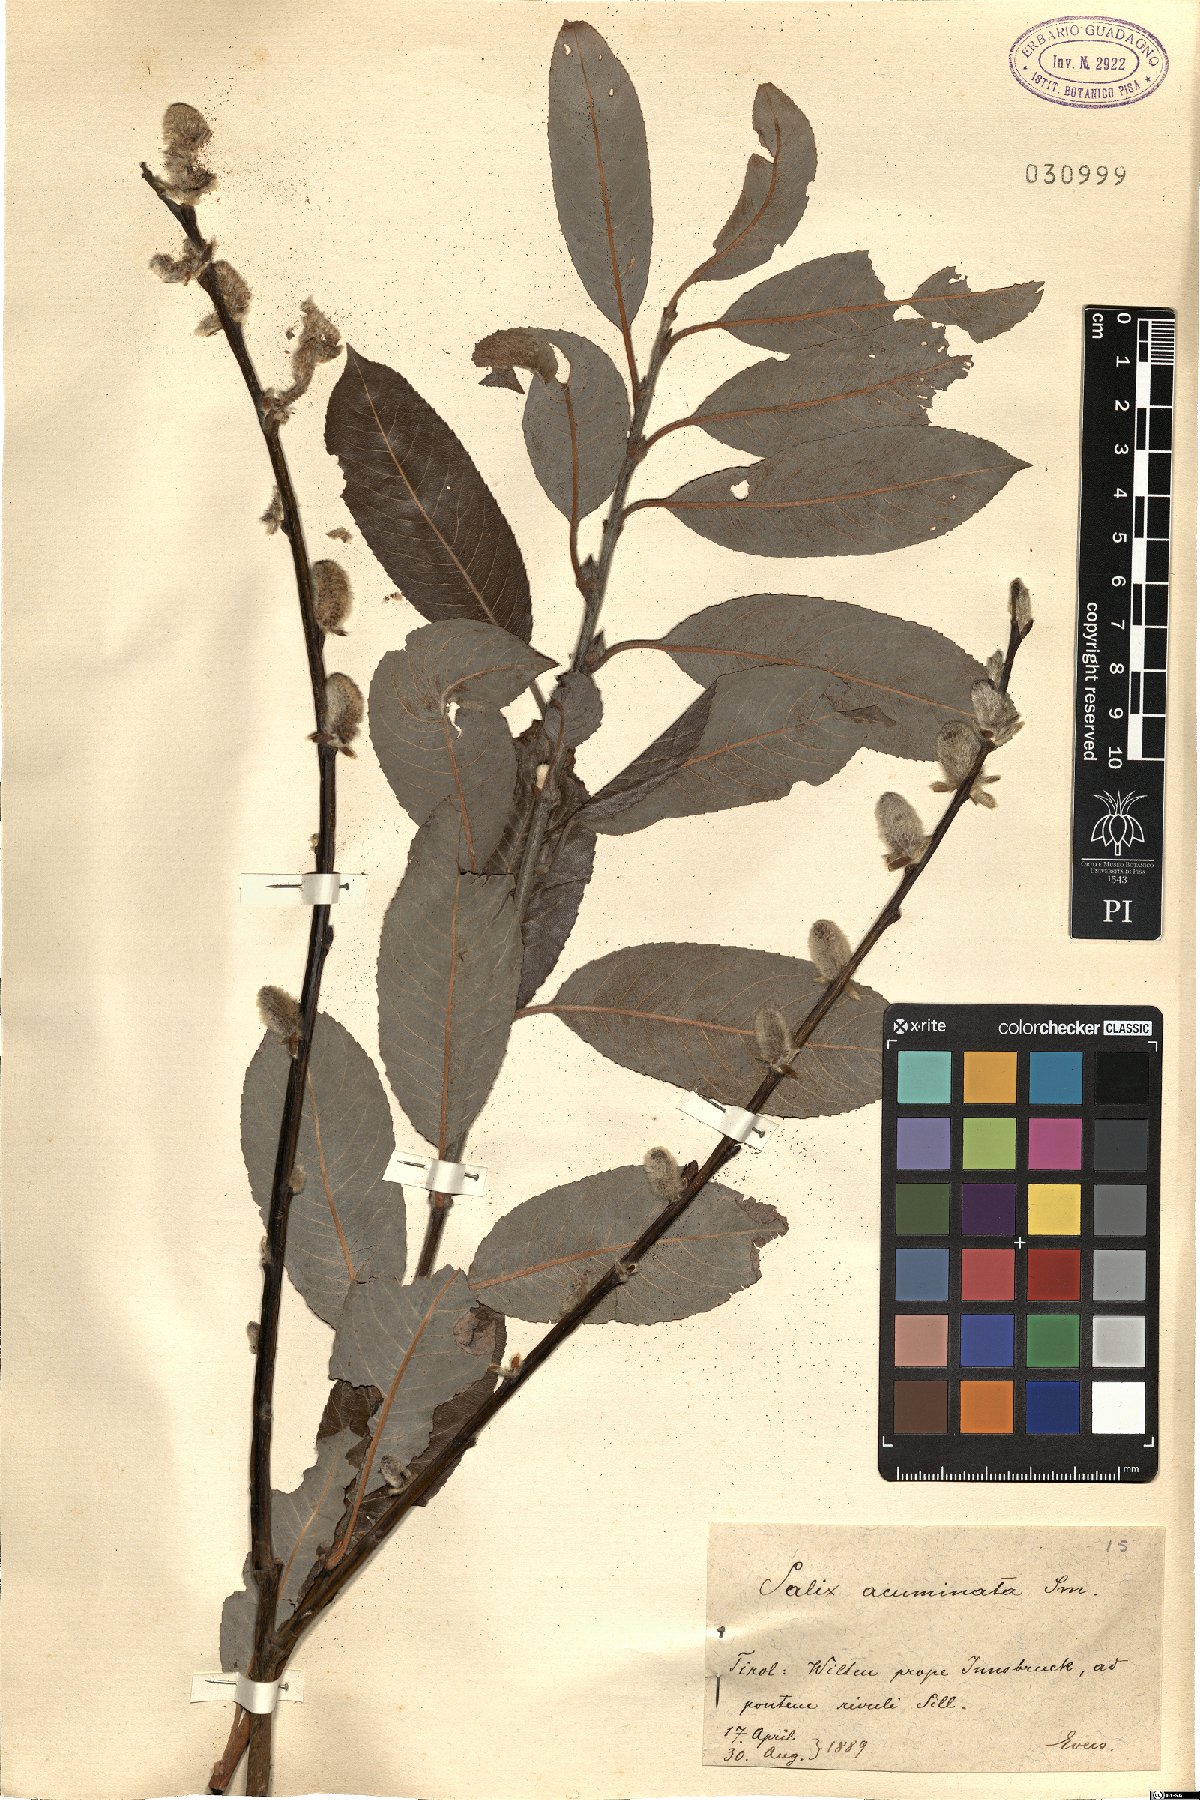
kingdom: Plantae
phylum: Tracheophyta
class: Magnoliopsida
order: Malpighiales
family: Salicaceae
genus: Salix
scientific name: Salix cinerea
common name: Common sallow
